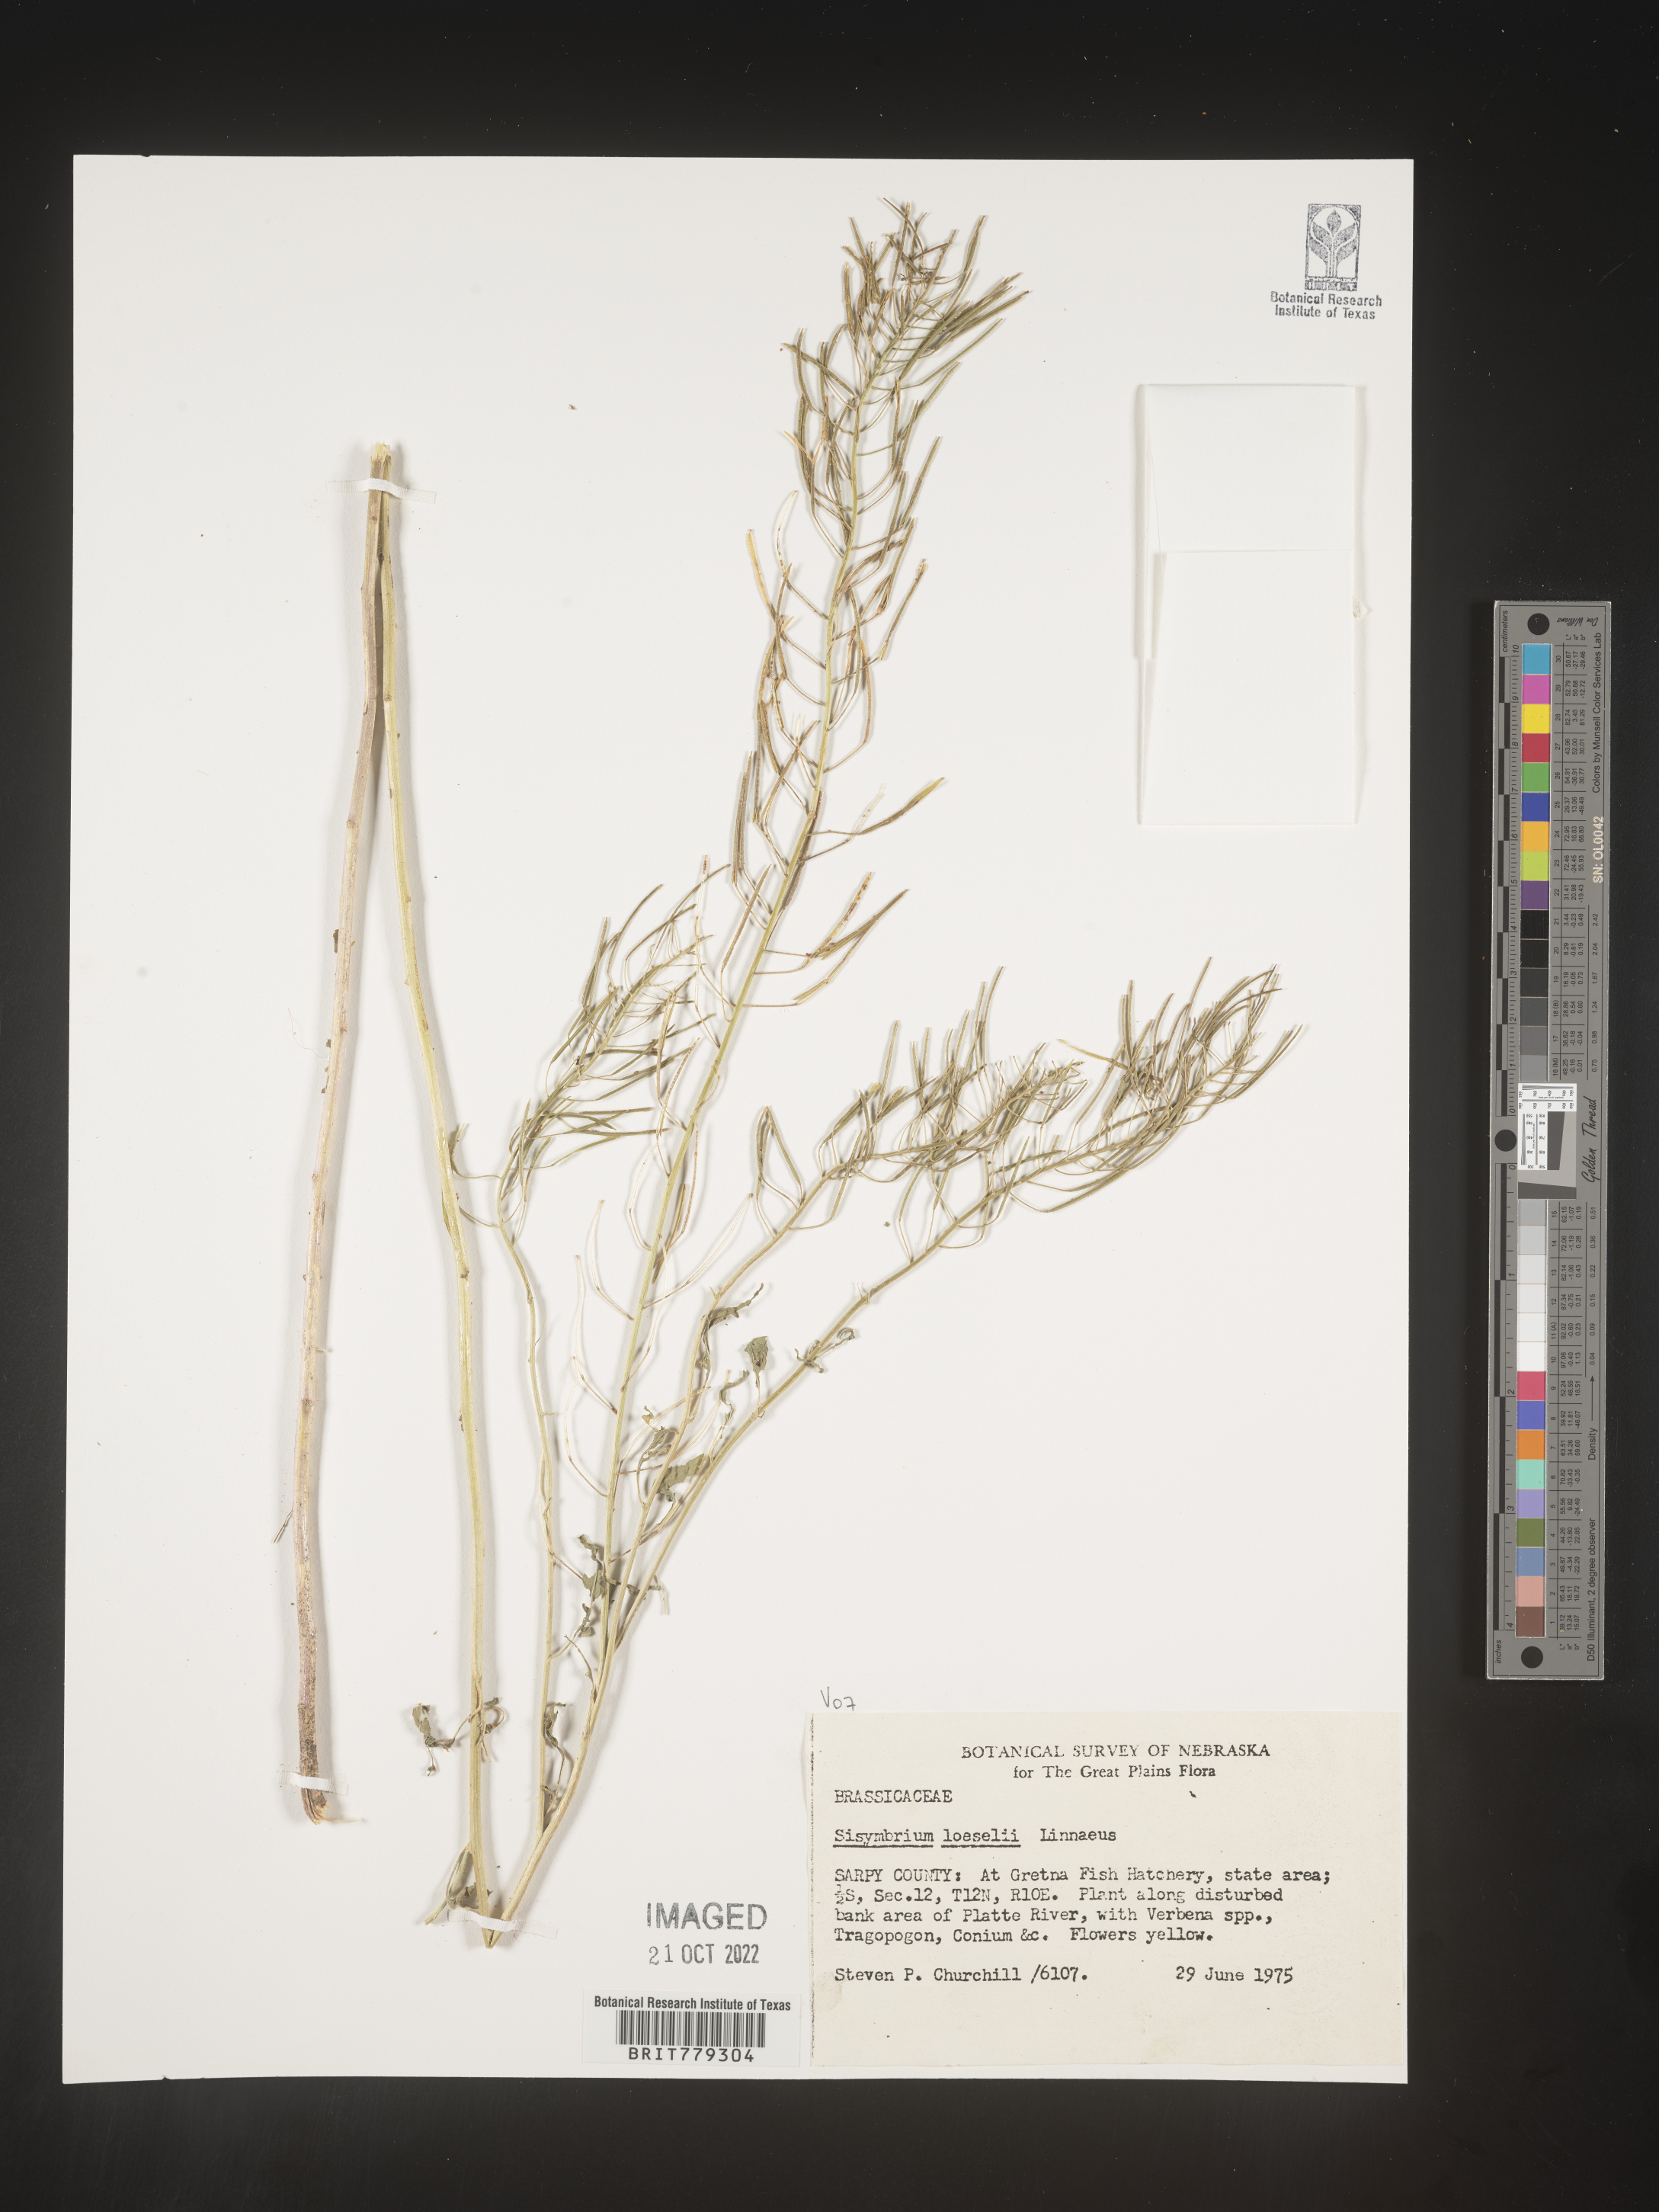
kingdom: Plantae
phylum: Tracheophyta
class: Magnoliopsida
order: Brassicales
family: Brassicaceae
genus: Sisymbrium
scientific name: Sisymbrium
